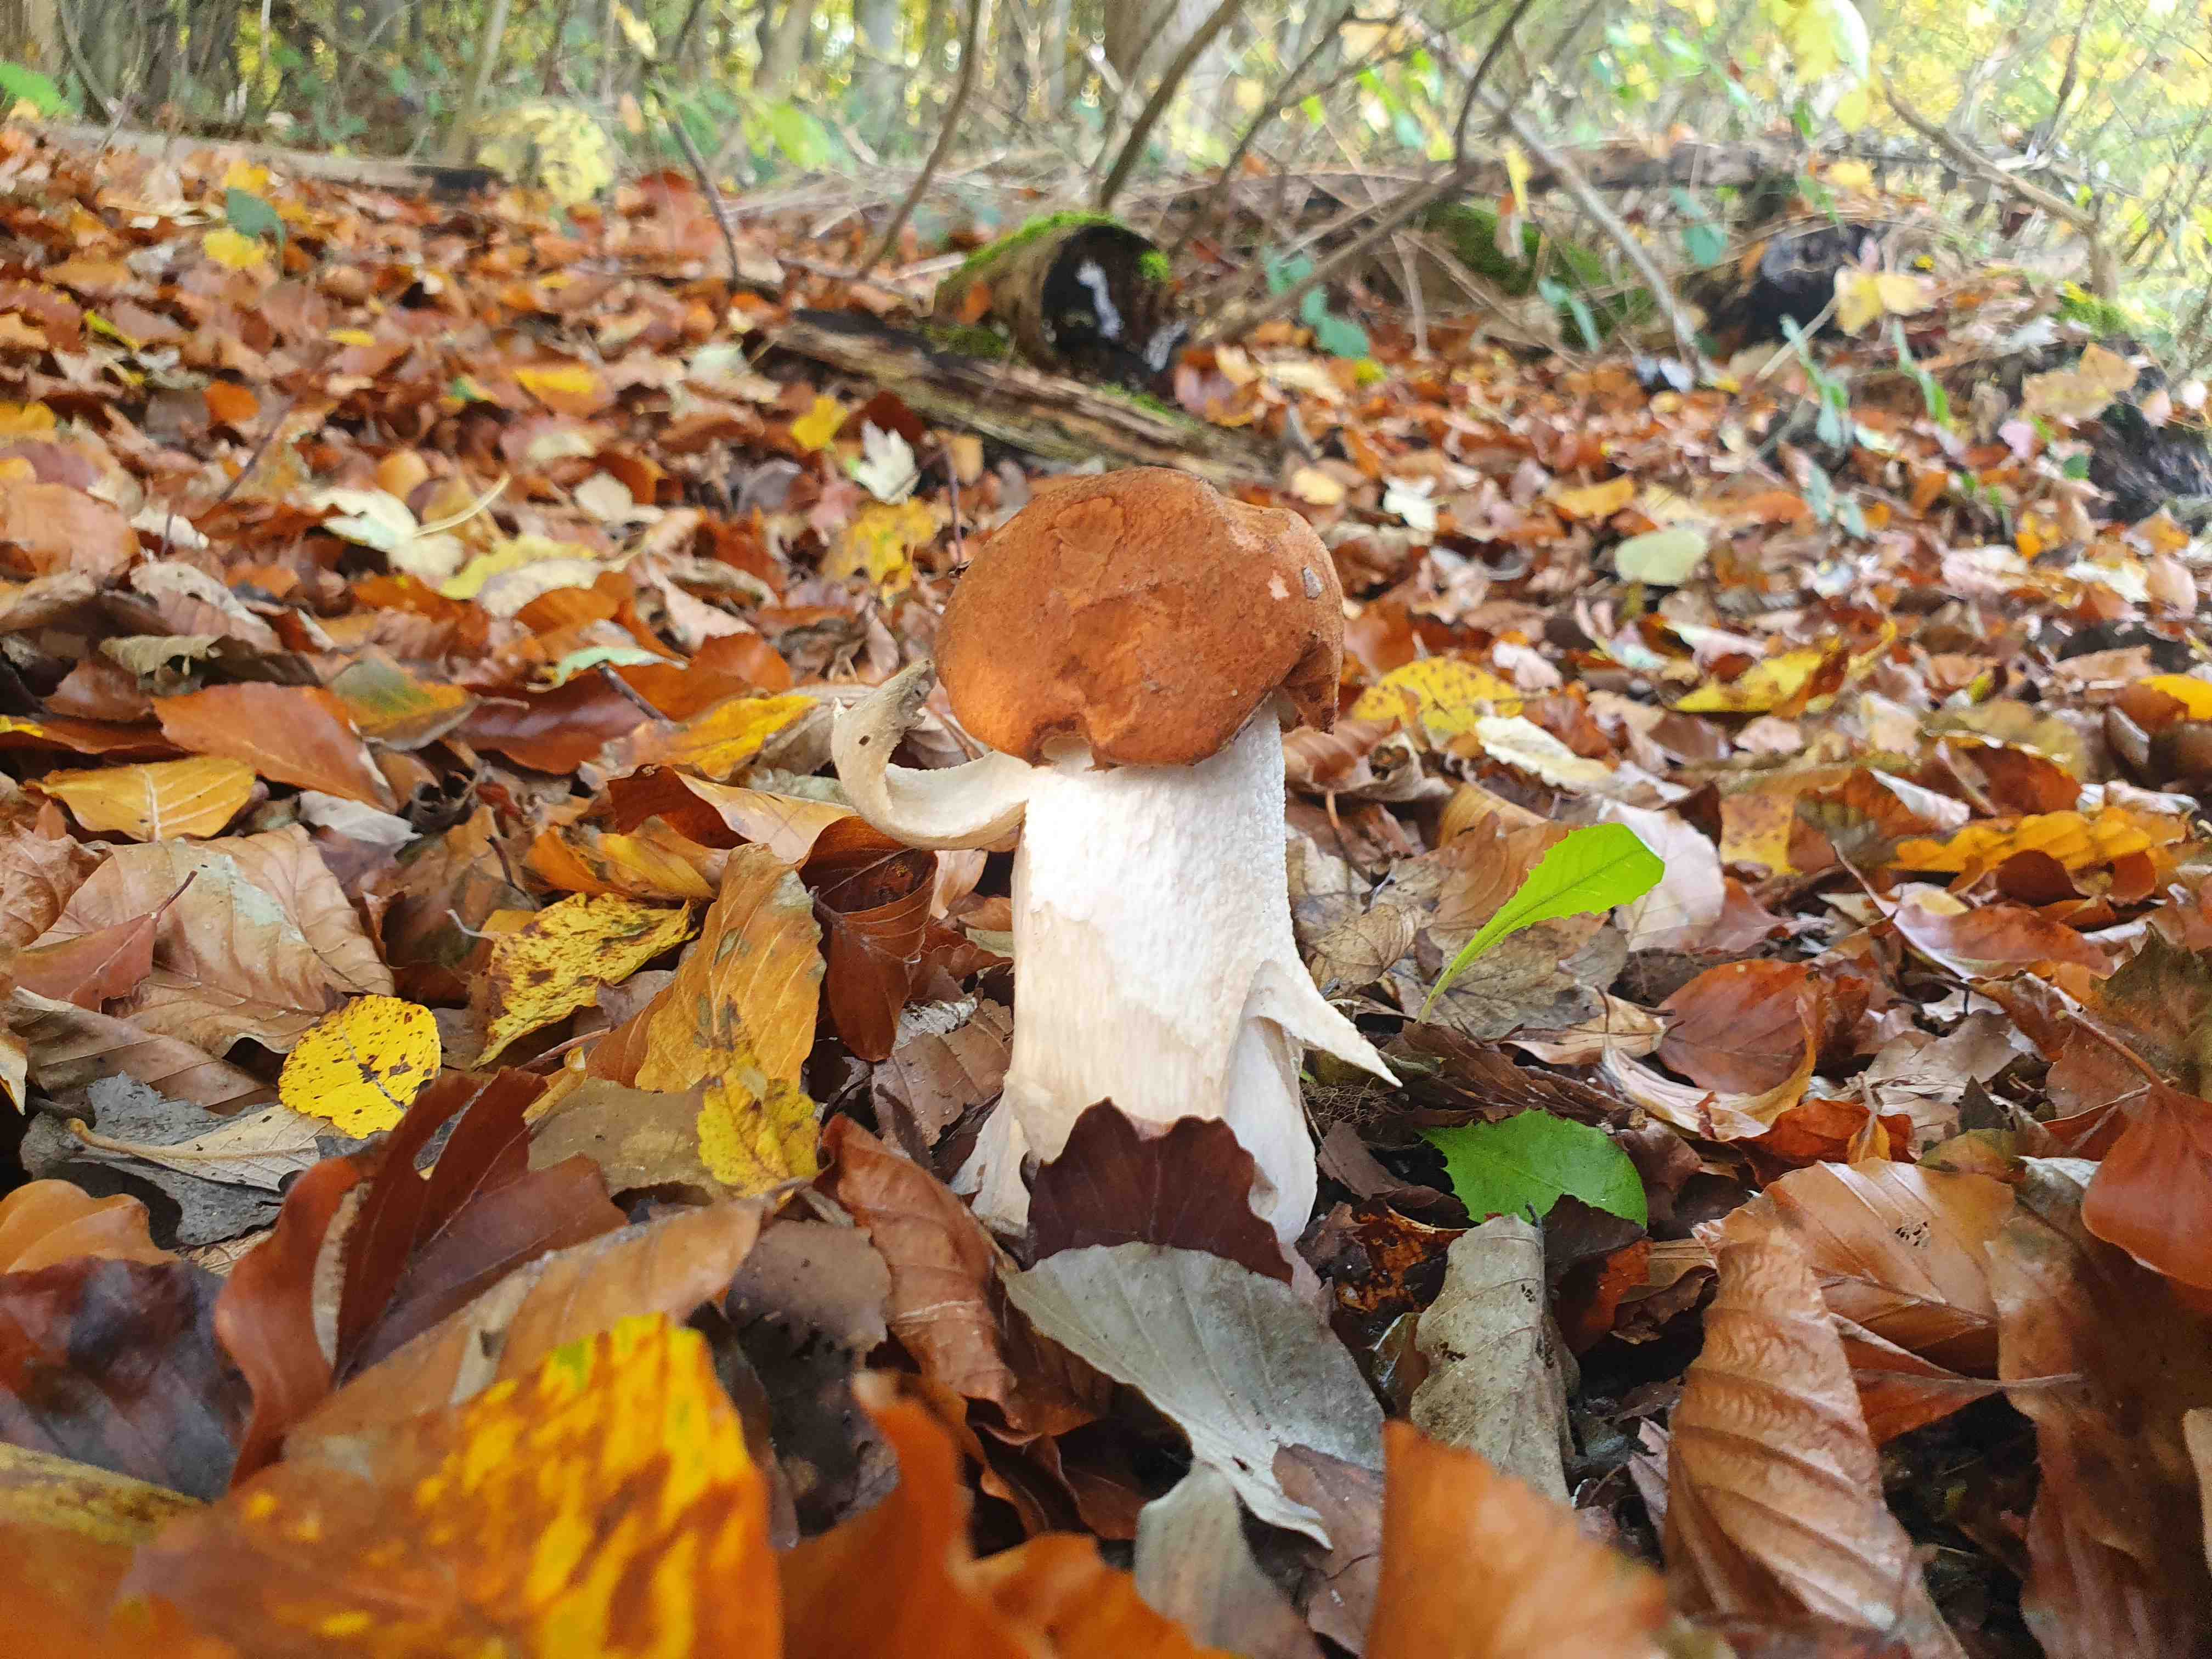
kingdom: Fungi
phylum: Basidiomycota
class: Agaricomycetes
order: Boletales
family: Boletaceae
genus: Leccinum
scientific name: Leccinum
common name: skælrørhat
